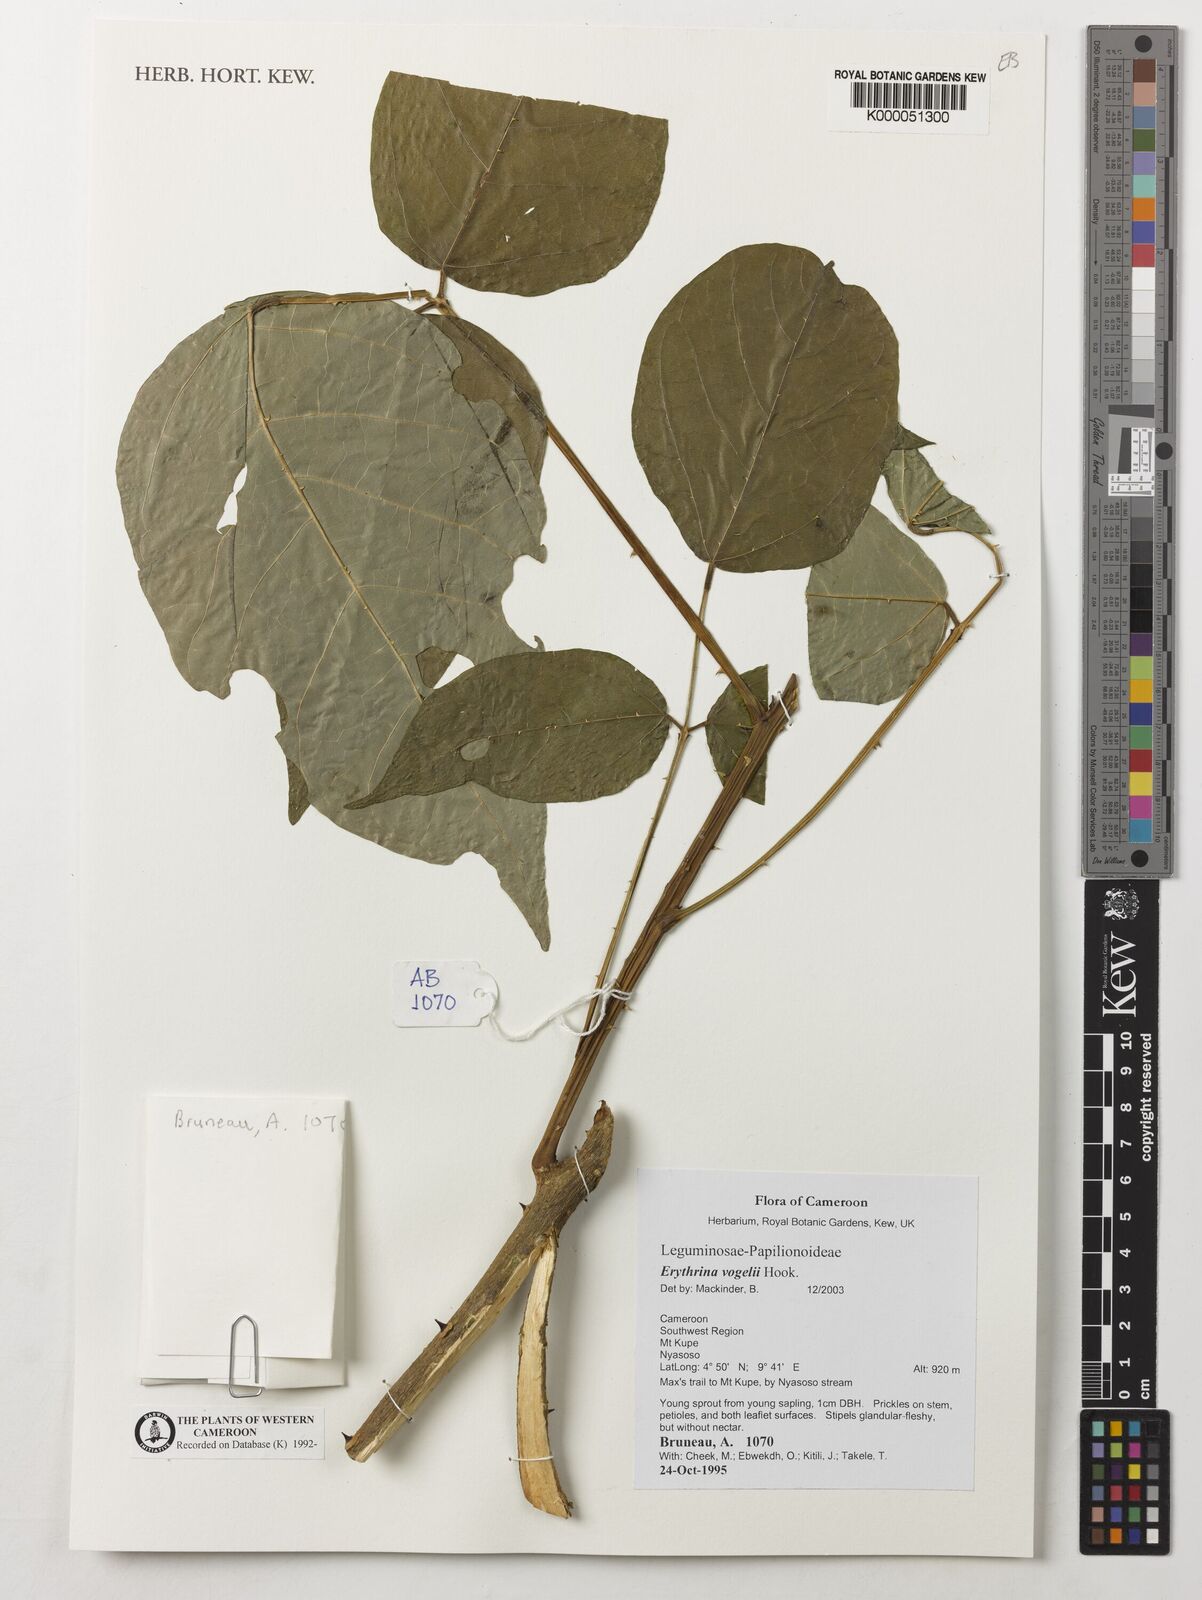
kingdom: Plantae
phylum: Tracheophyta
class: Magnoliopsida
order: Fabales
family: Fabaceae
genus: Erythrina
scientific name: Erythrina vogelii
